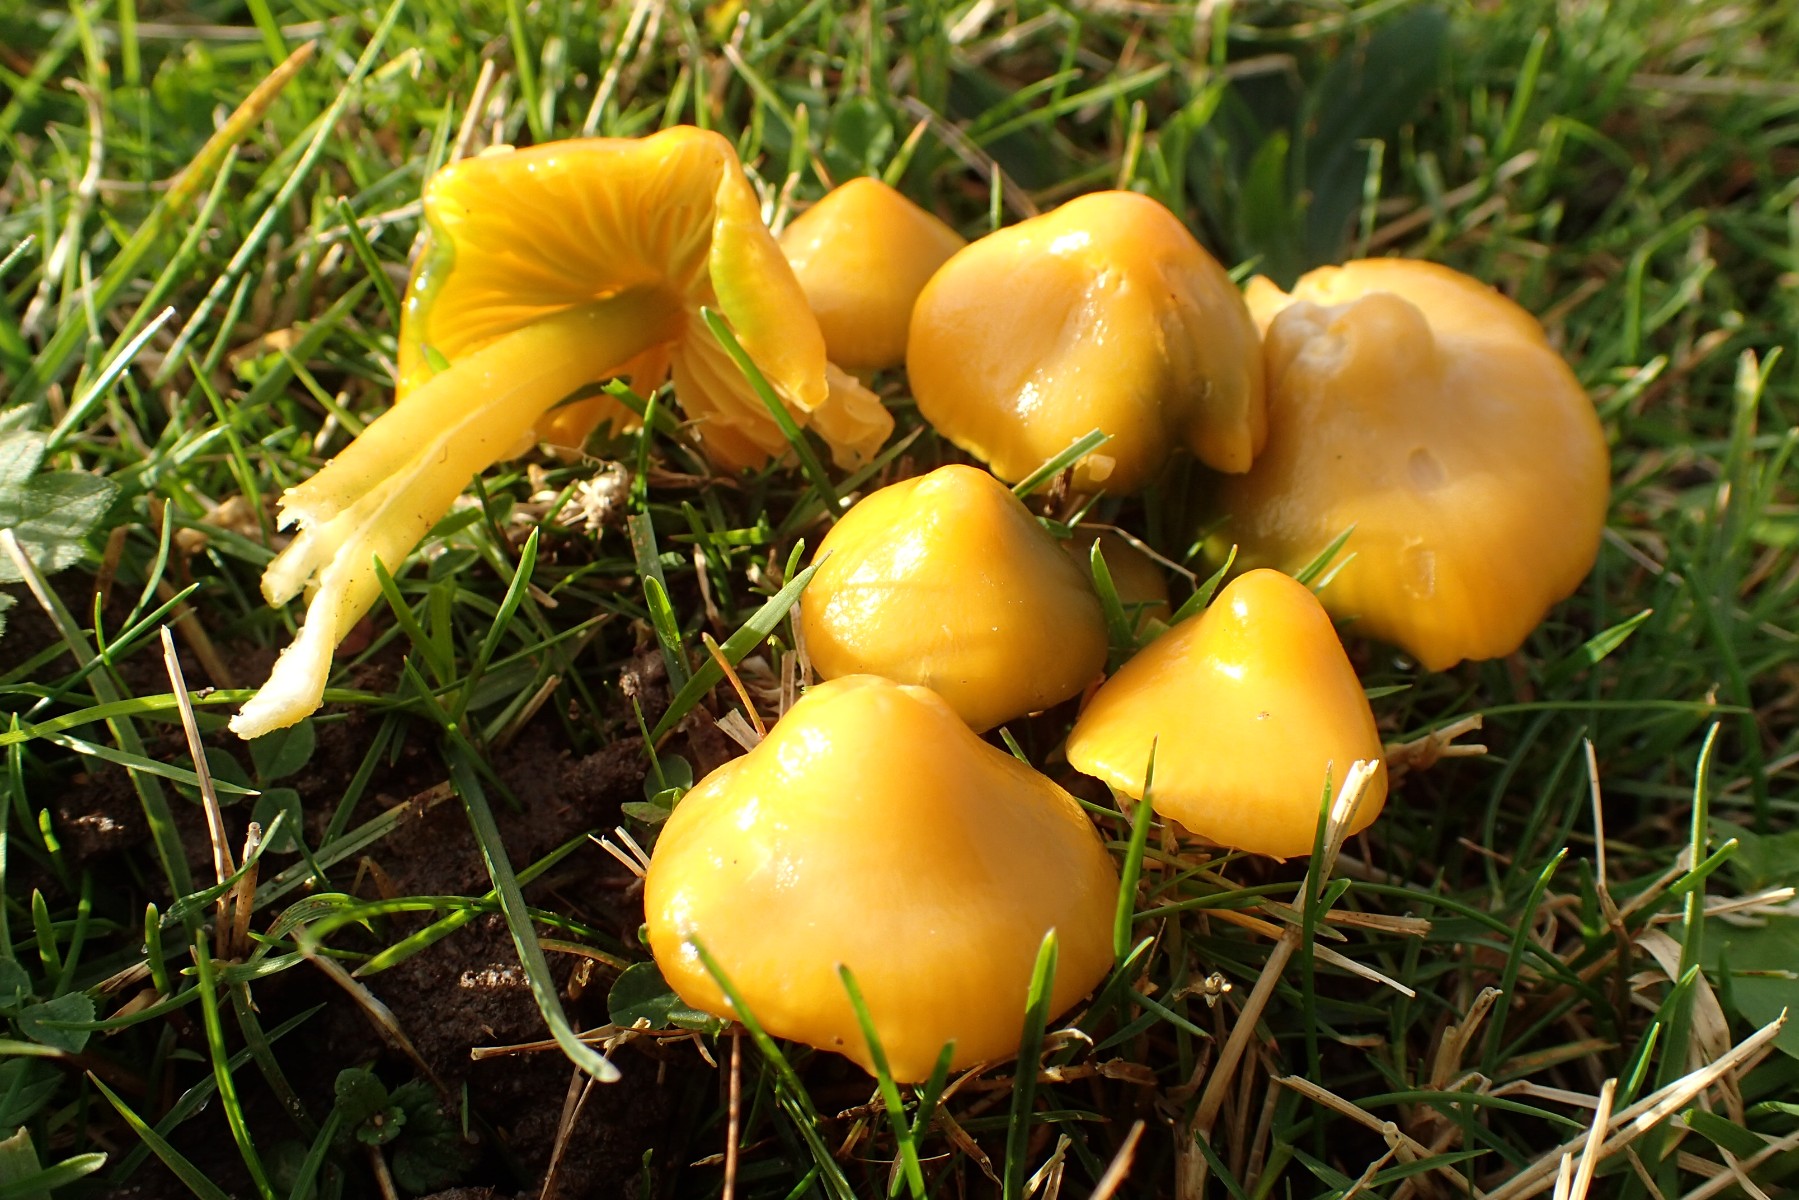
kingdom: Fungi
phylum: Basidiomycota
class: Agaricomycetes
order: Agaricales
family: Hygrophoraceae
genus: Gliophorus
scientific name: Gliophorus psittacinus
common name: papegøje-vokshat
